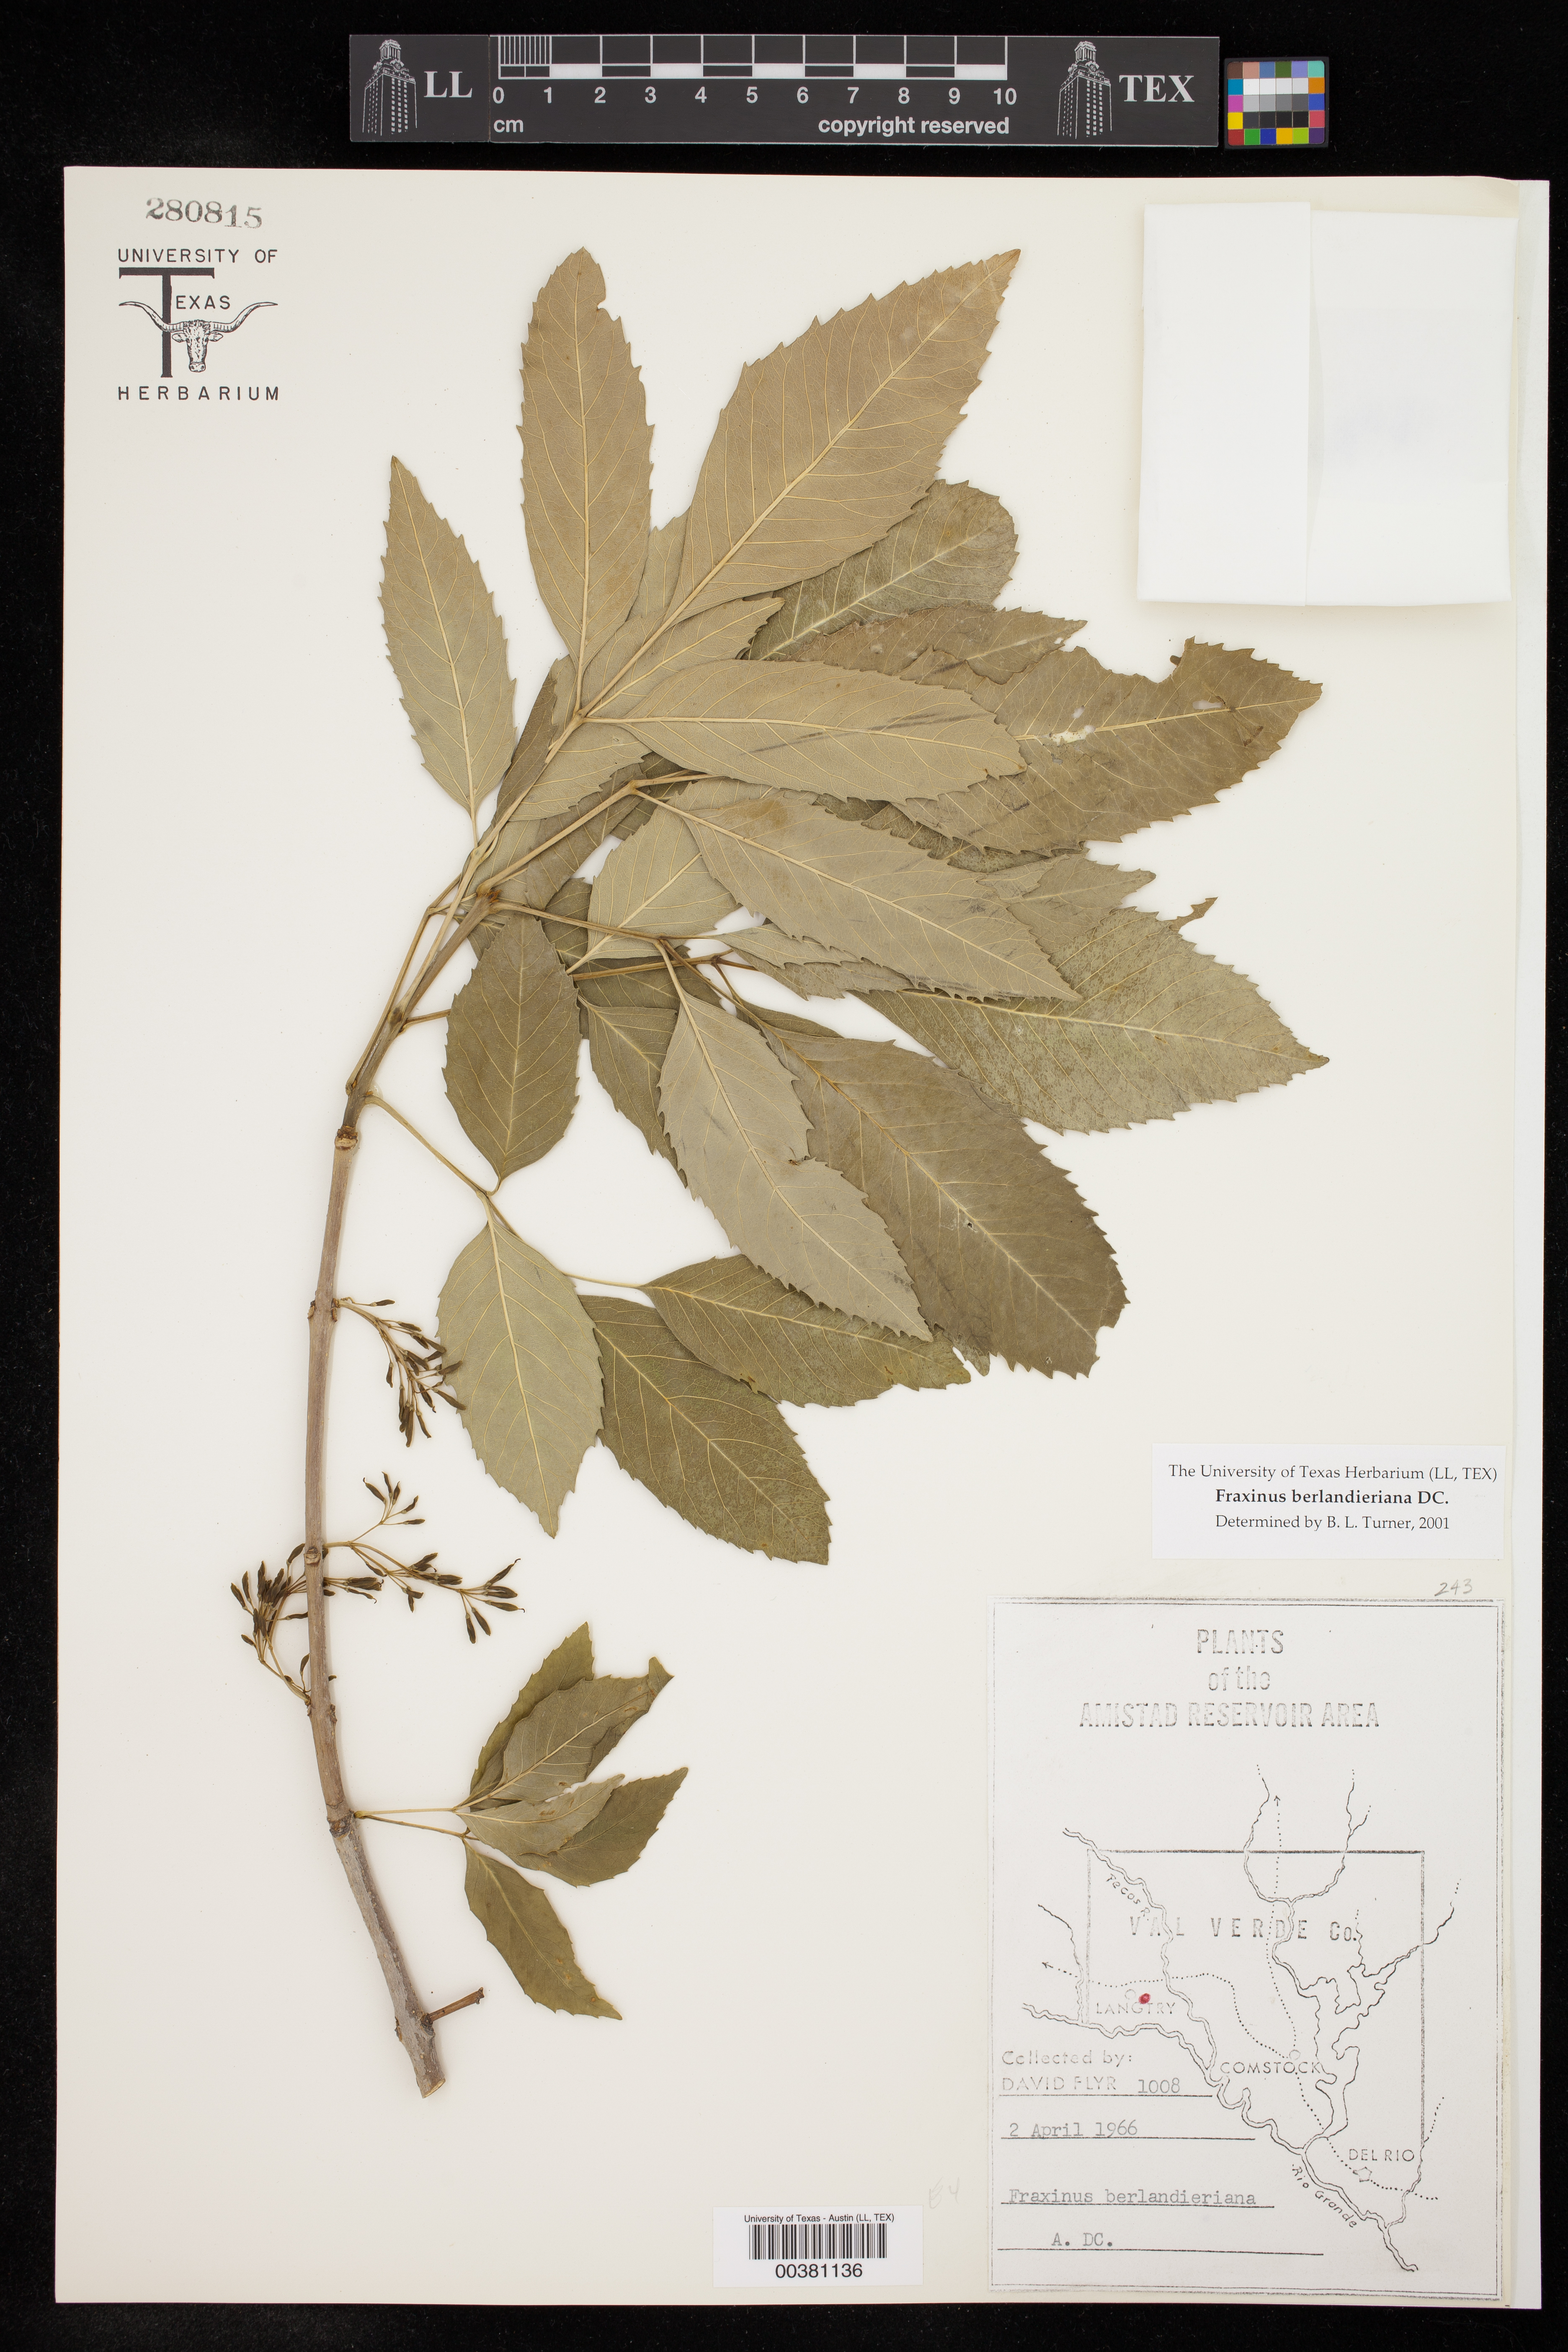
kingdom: Plantae
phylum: Tracheophyta
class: Magnoliopsida
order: Lamiales
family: Oleaceae
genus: Fraxinus
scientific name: Fraxinus berlandieriana
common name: Berlandier ash
